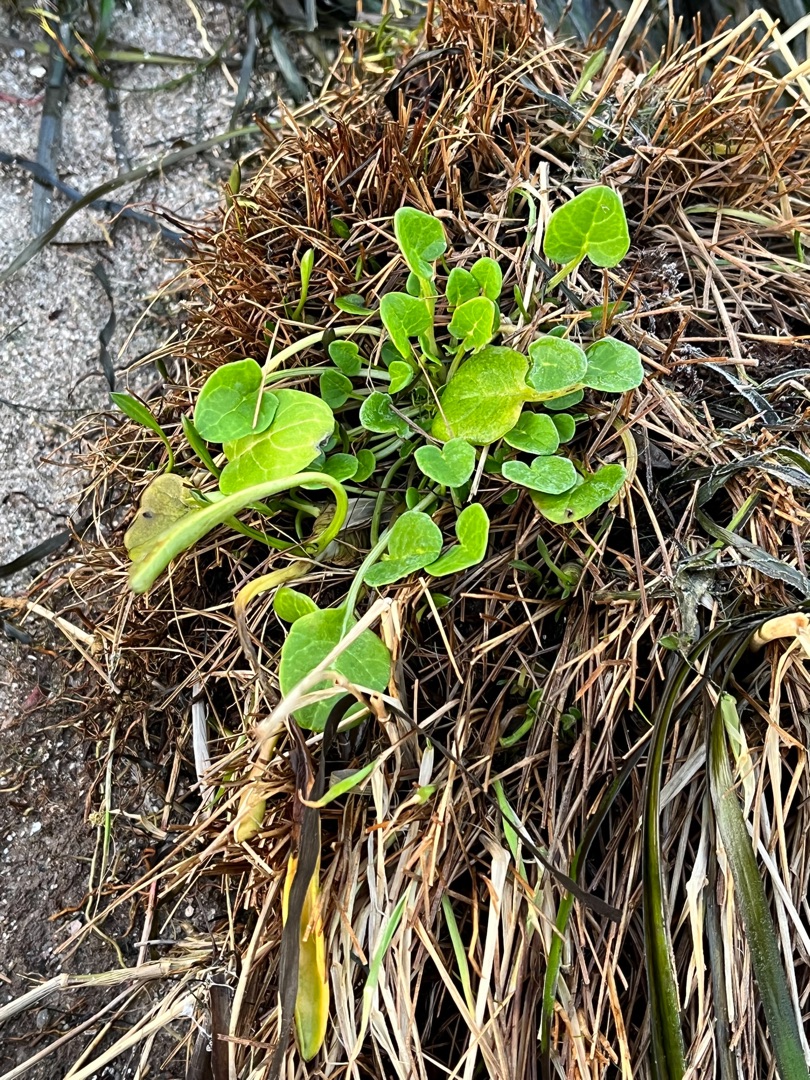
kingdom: Plantae
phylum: Tracheophyta
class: Magnoliopsida
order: Brassicales
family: Brassicaceae
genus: Cochlearia
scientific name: Cochlearia officinalis
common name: Læge-kokleare
